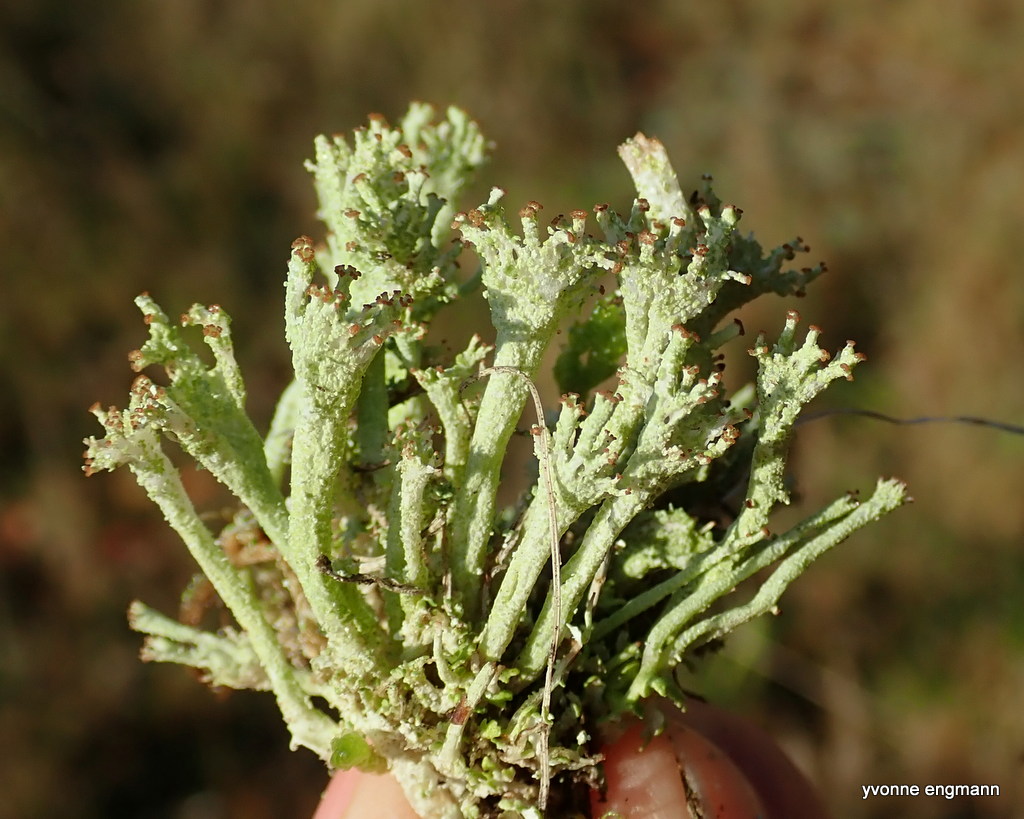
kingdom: Fungi
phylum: Ascomycota
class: Lecanoromycetes
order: Lecanorales
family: Cladoniaceae
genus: Cladonia
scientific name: Cladonia ramulosa
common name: kliddet bægerlav
